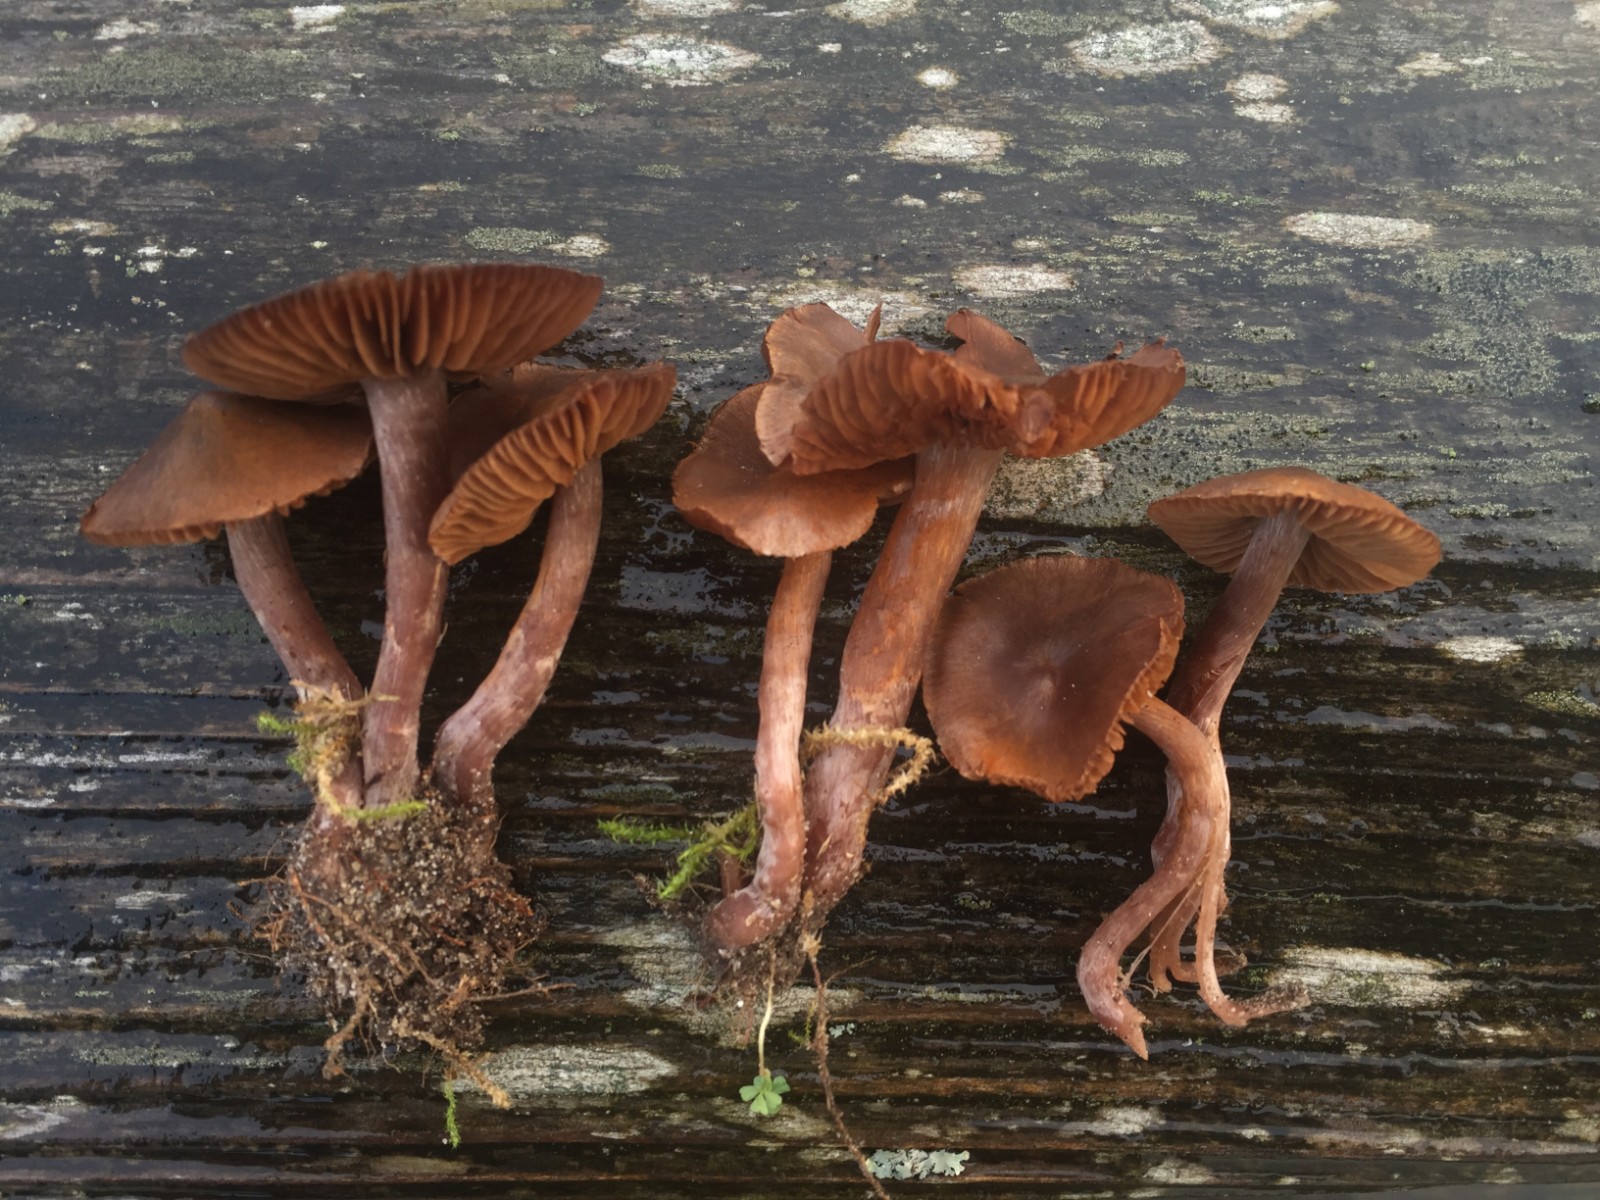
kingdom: Fungi
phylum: Basidiomycota
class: Agaricomycetes
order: Agaricales
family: Cortinariaceae
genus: Cortinarius
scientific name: Cortinarius umbrinolens
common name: mørk slørhat
